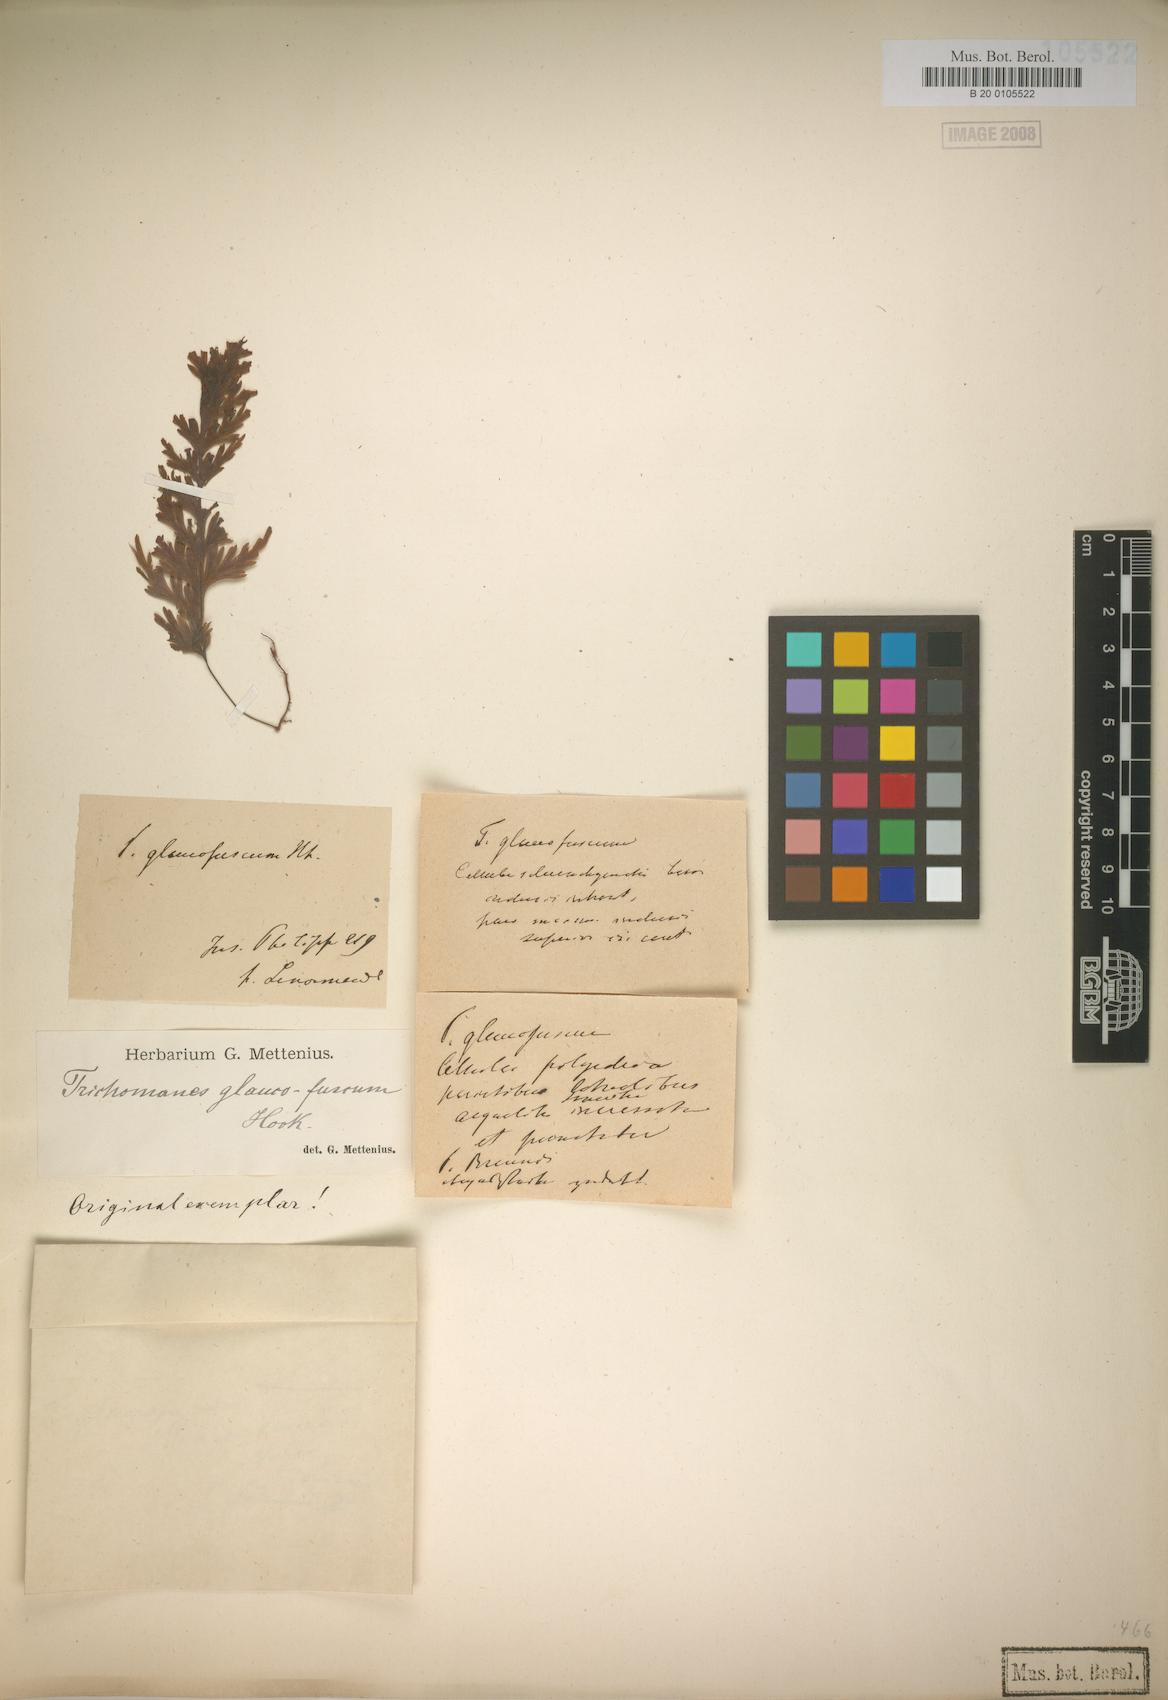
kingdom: Plantae
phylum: Tracheophyta
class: Polypodiopsida
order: Hymenophyllales
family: Hymenophyllaceae
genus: Hymenophyllum
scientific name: Hymenophyllum pallidum
